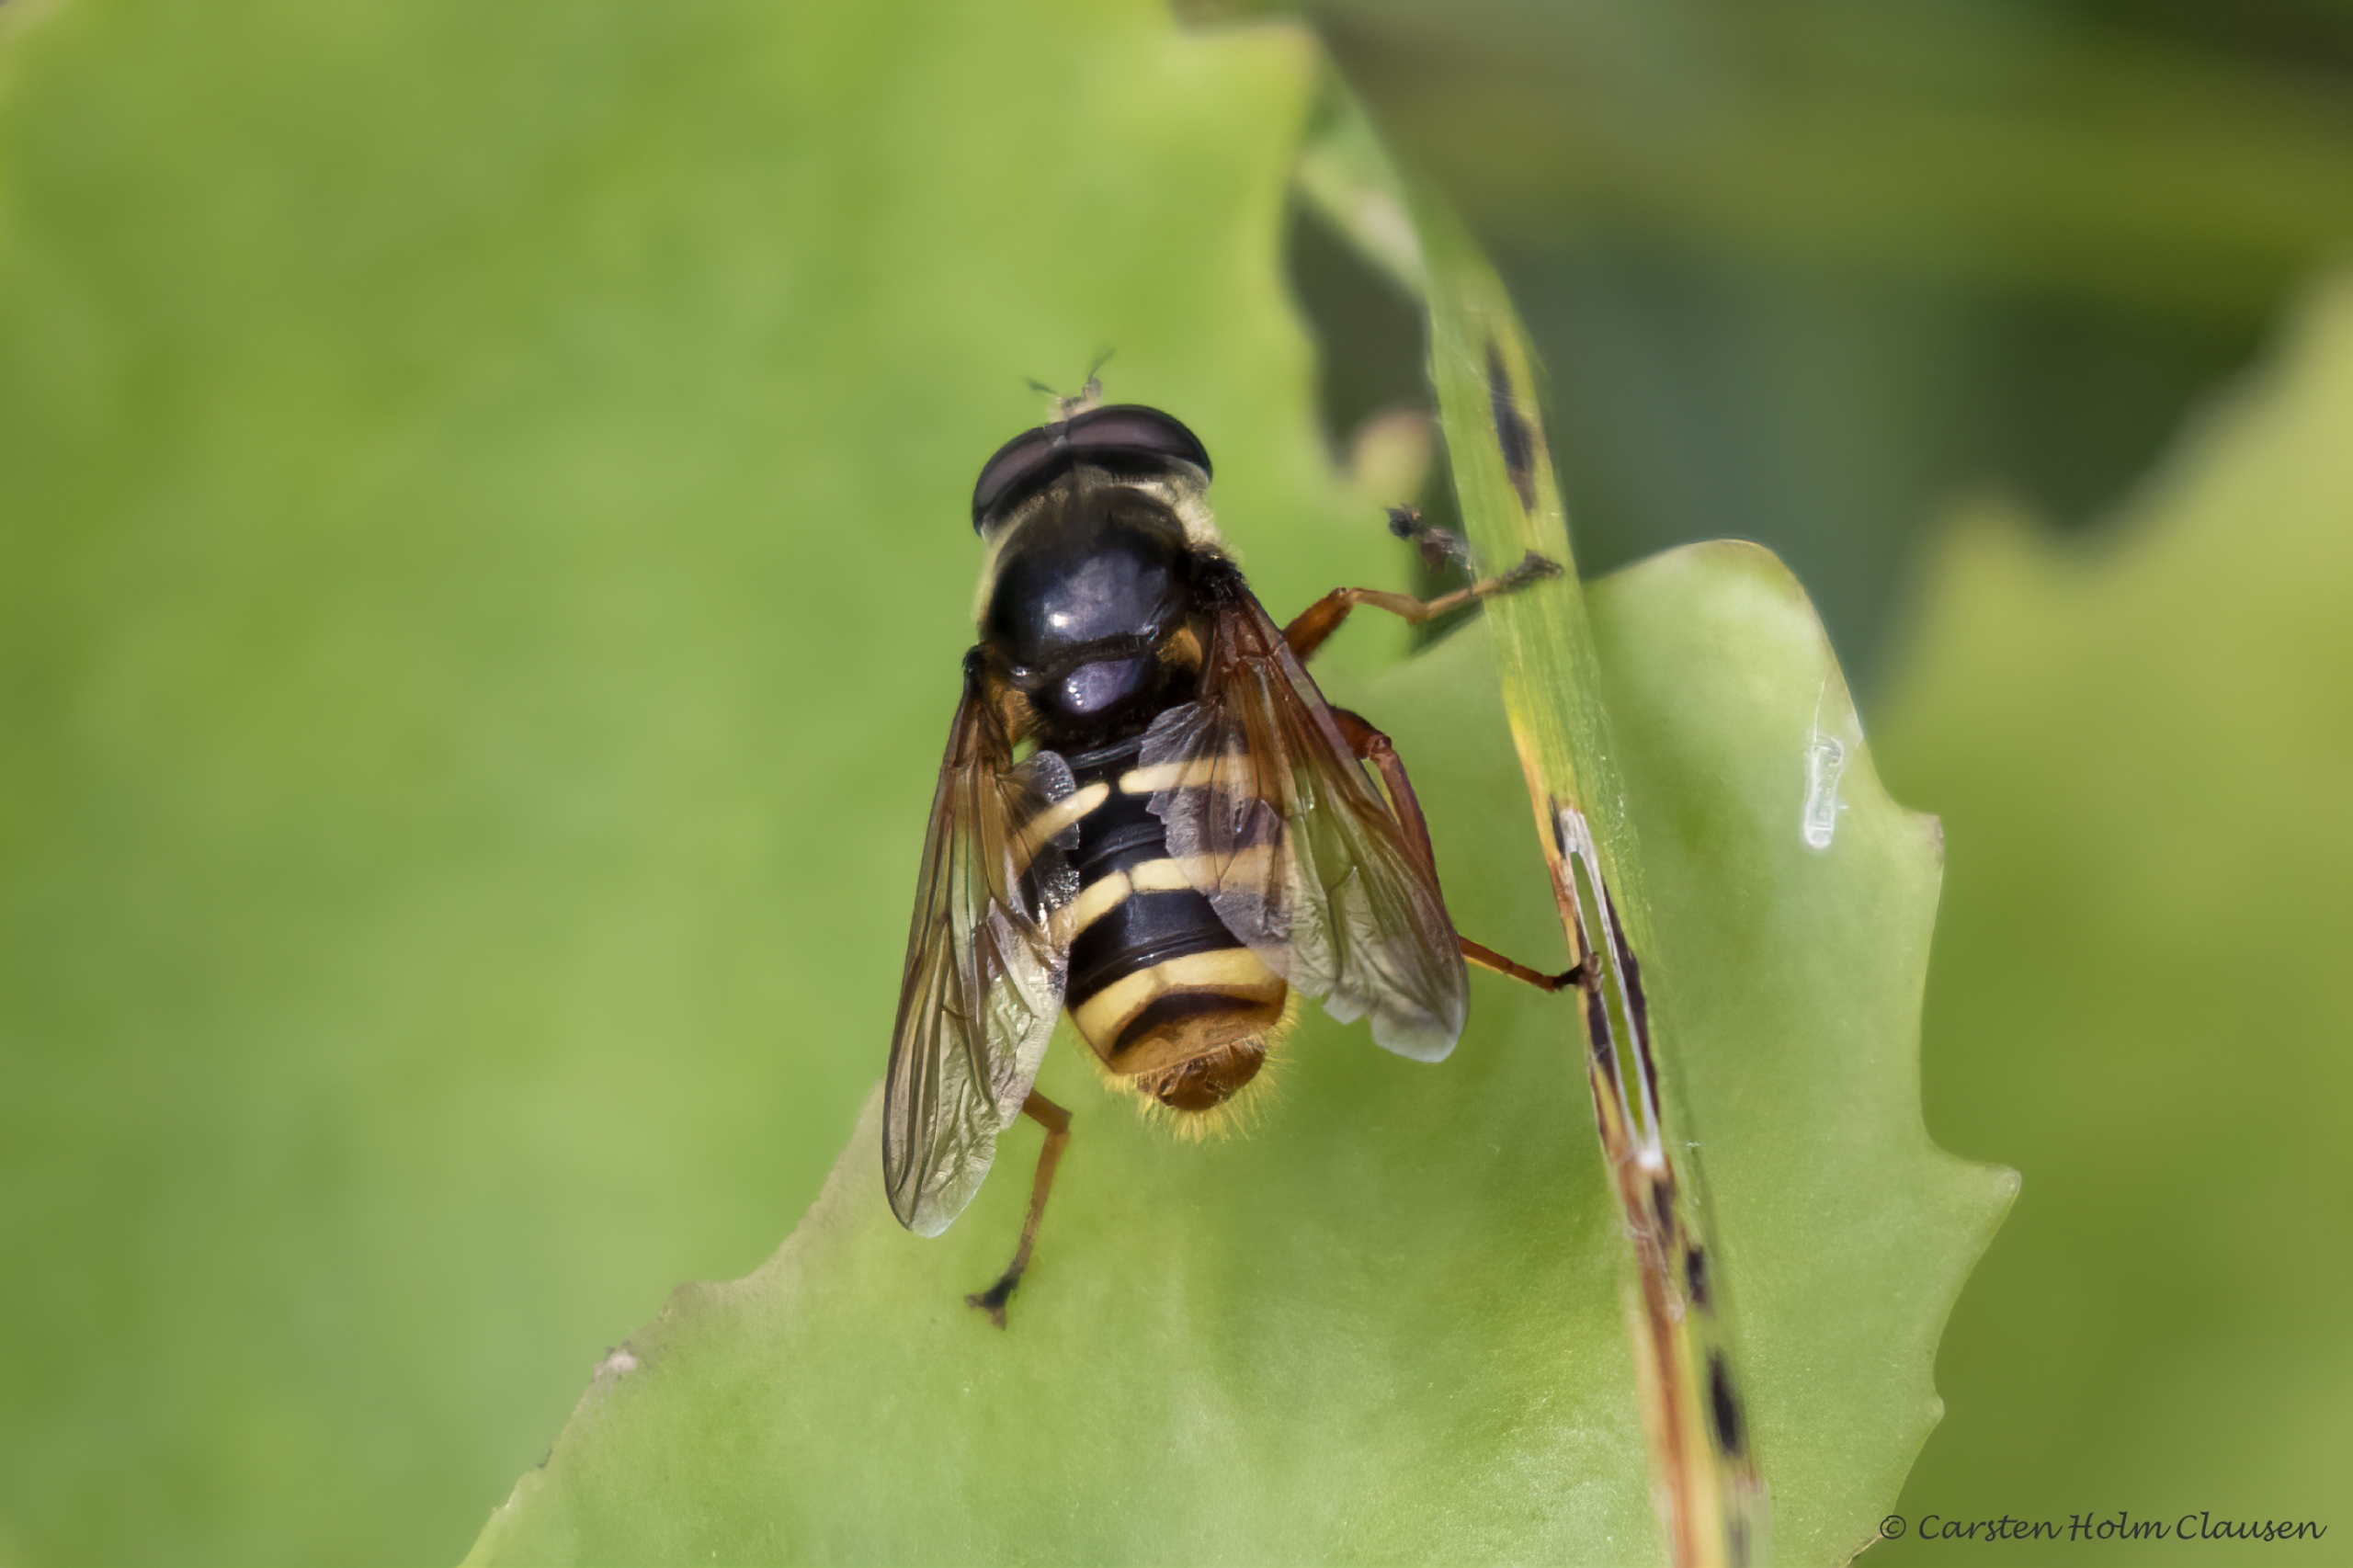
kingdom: Animalia
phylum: Arthropoda
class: Insecta
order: Diptera
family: Syrphidae
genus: Sericomyia
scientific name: Sericomyia silentis
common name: Tørve-silkesvirreflue
